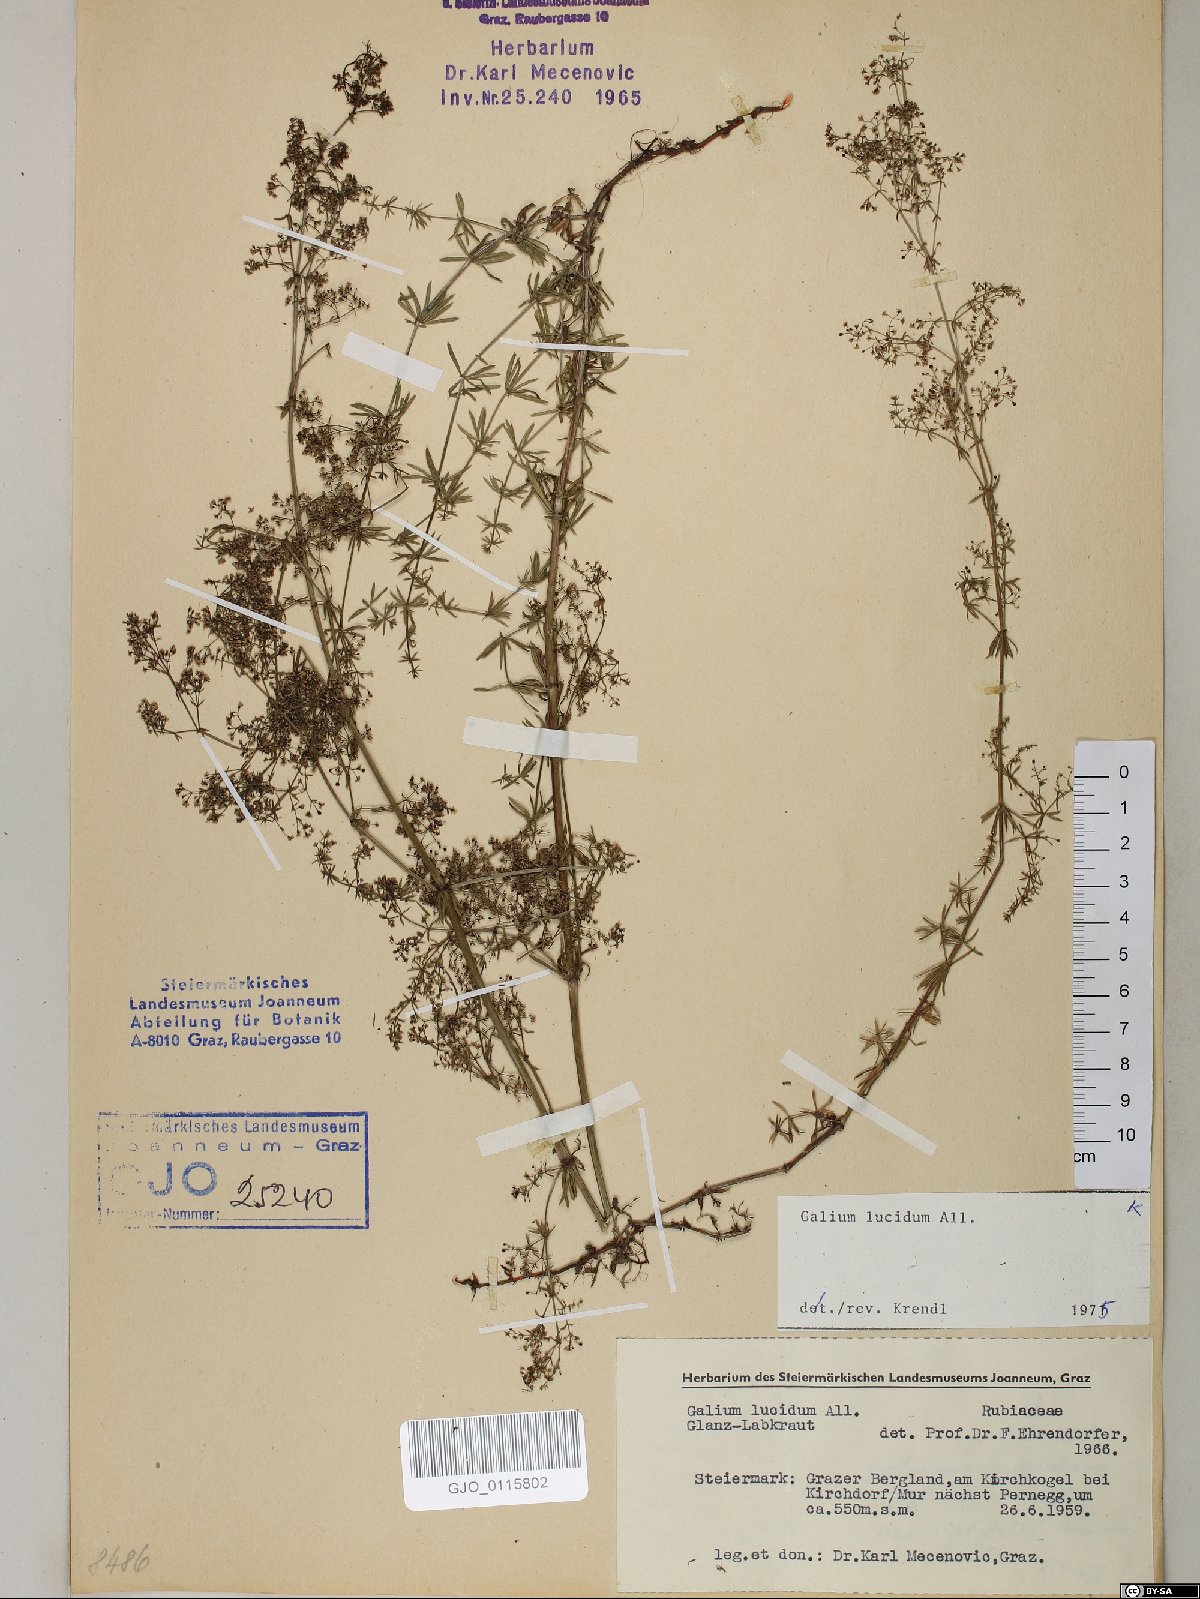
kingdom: Plantae
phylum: Tracheophyta
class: Magnoliopsida
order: Gentianales
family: Rubiaceae
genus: Galium
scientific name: Galium lucidum
